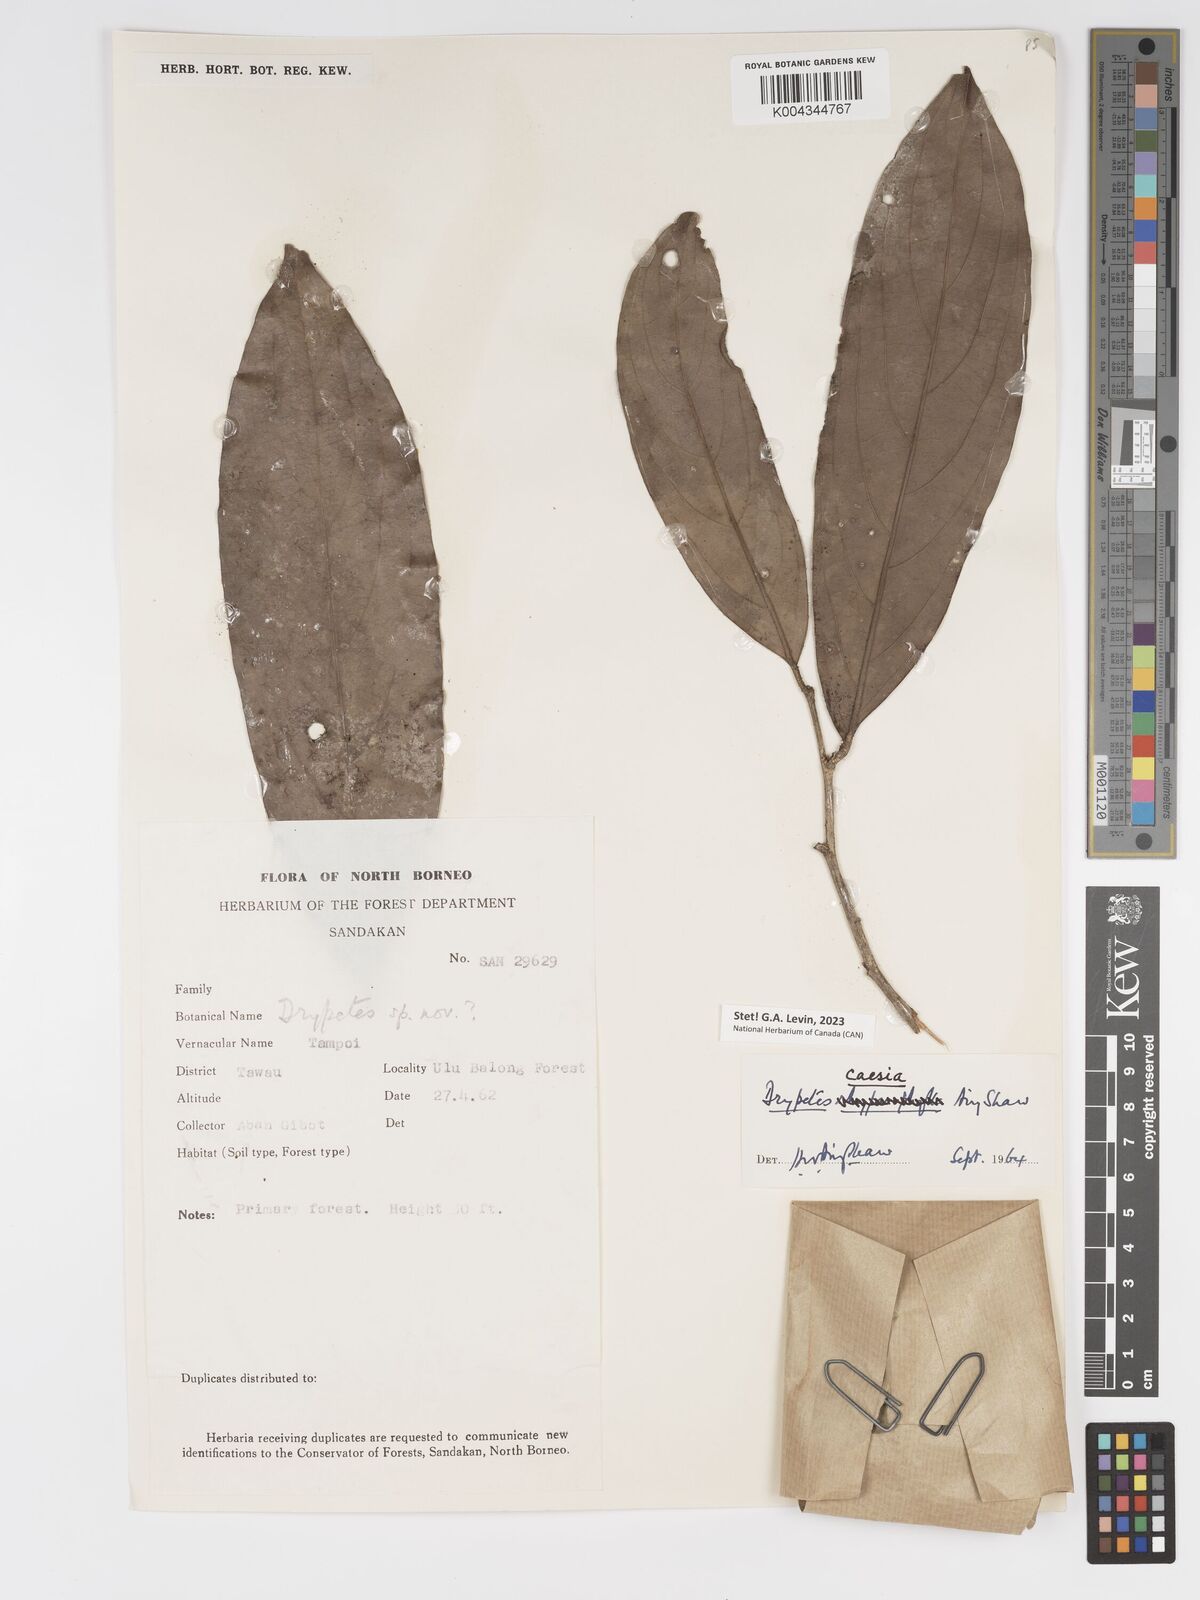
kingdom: Plantae
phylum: Tracheophyta
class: Magnoliopsida
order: Malpighiales
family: Putranjivaceae
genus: Drypetes
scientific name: Drypetes caesia
